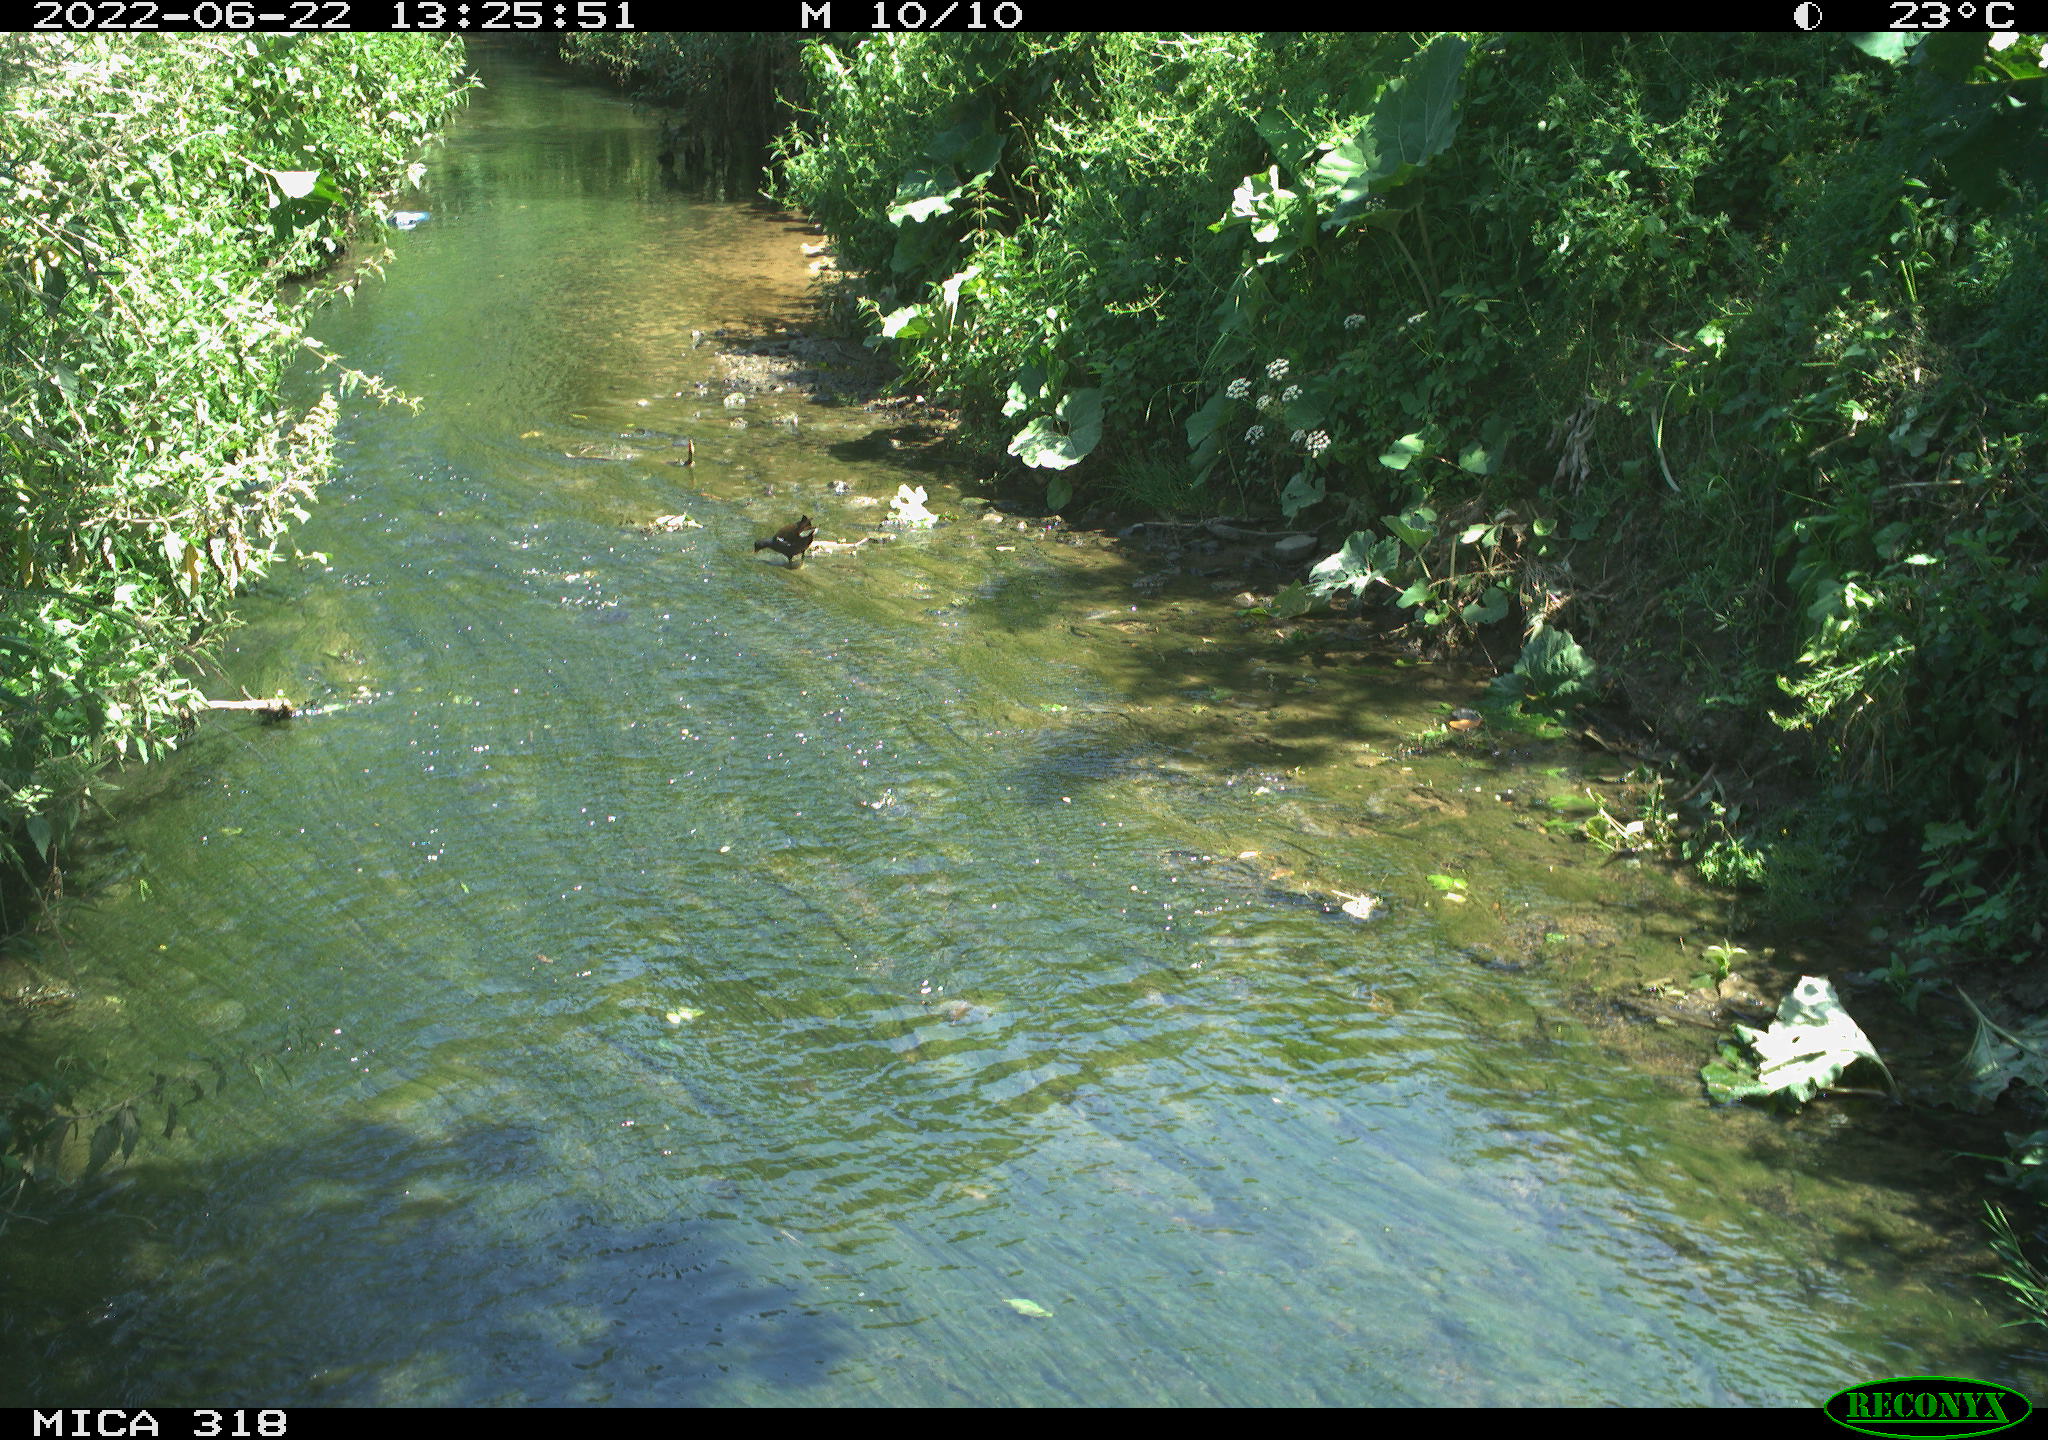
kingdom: Animalia
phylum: Chordata
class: Aves
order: Gruiformes
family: Rallidae
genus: Gallinula
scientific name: Gallinula chloropus
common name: Common moorhen
